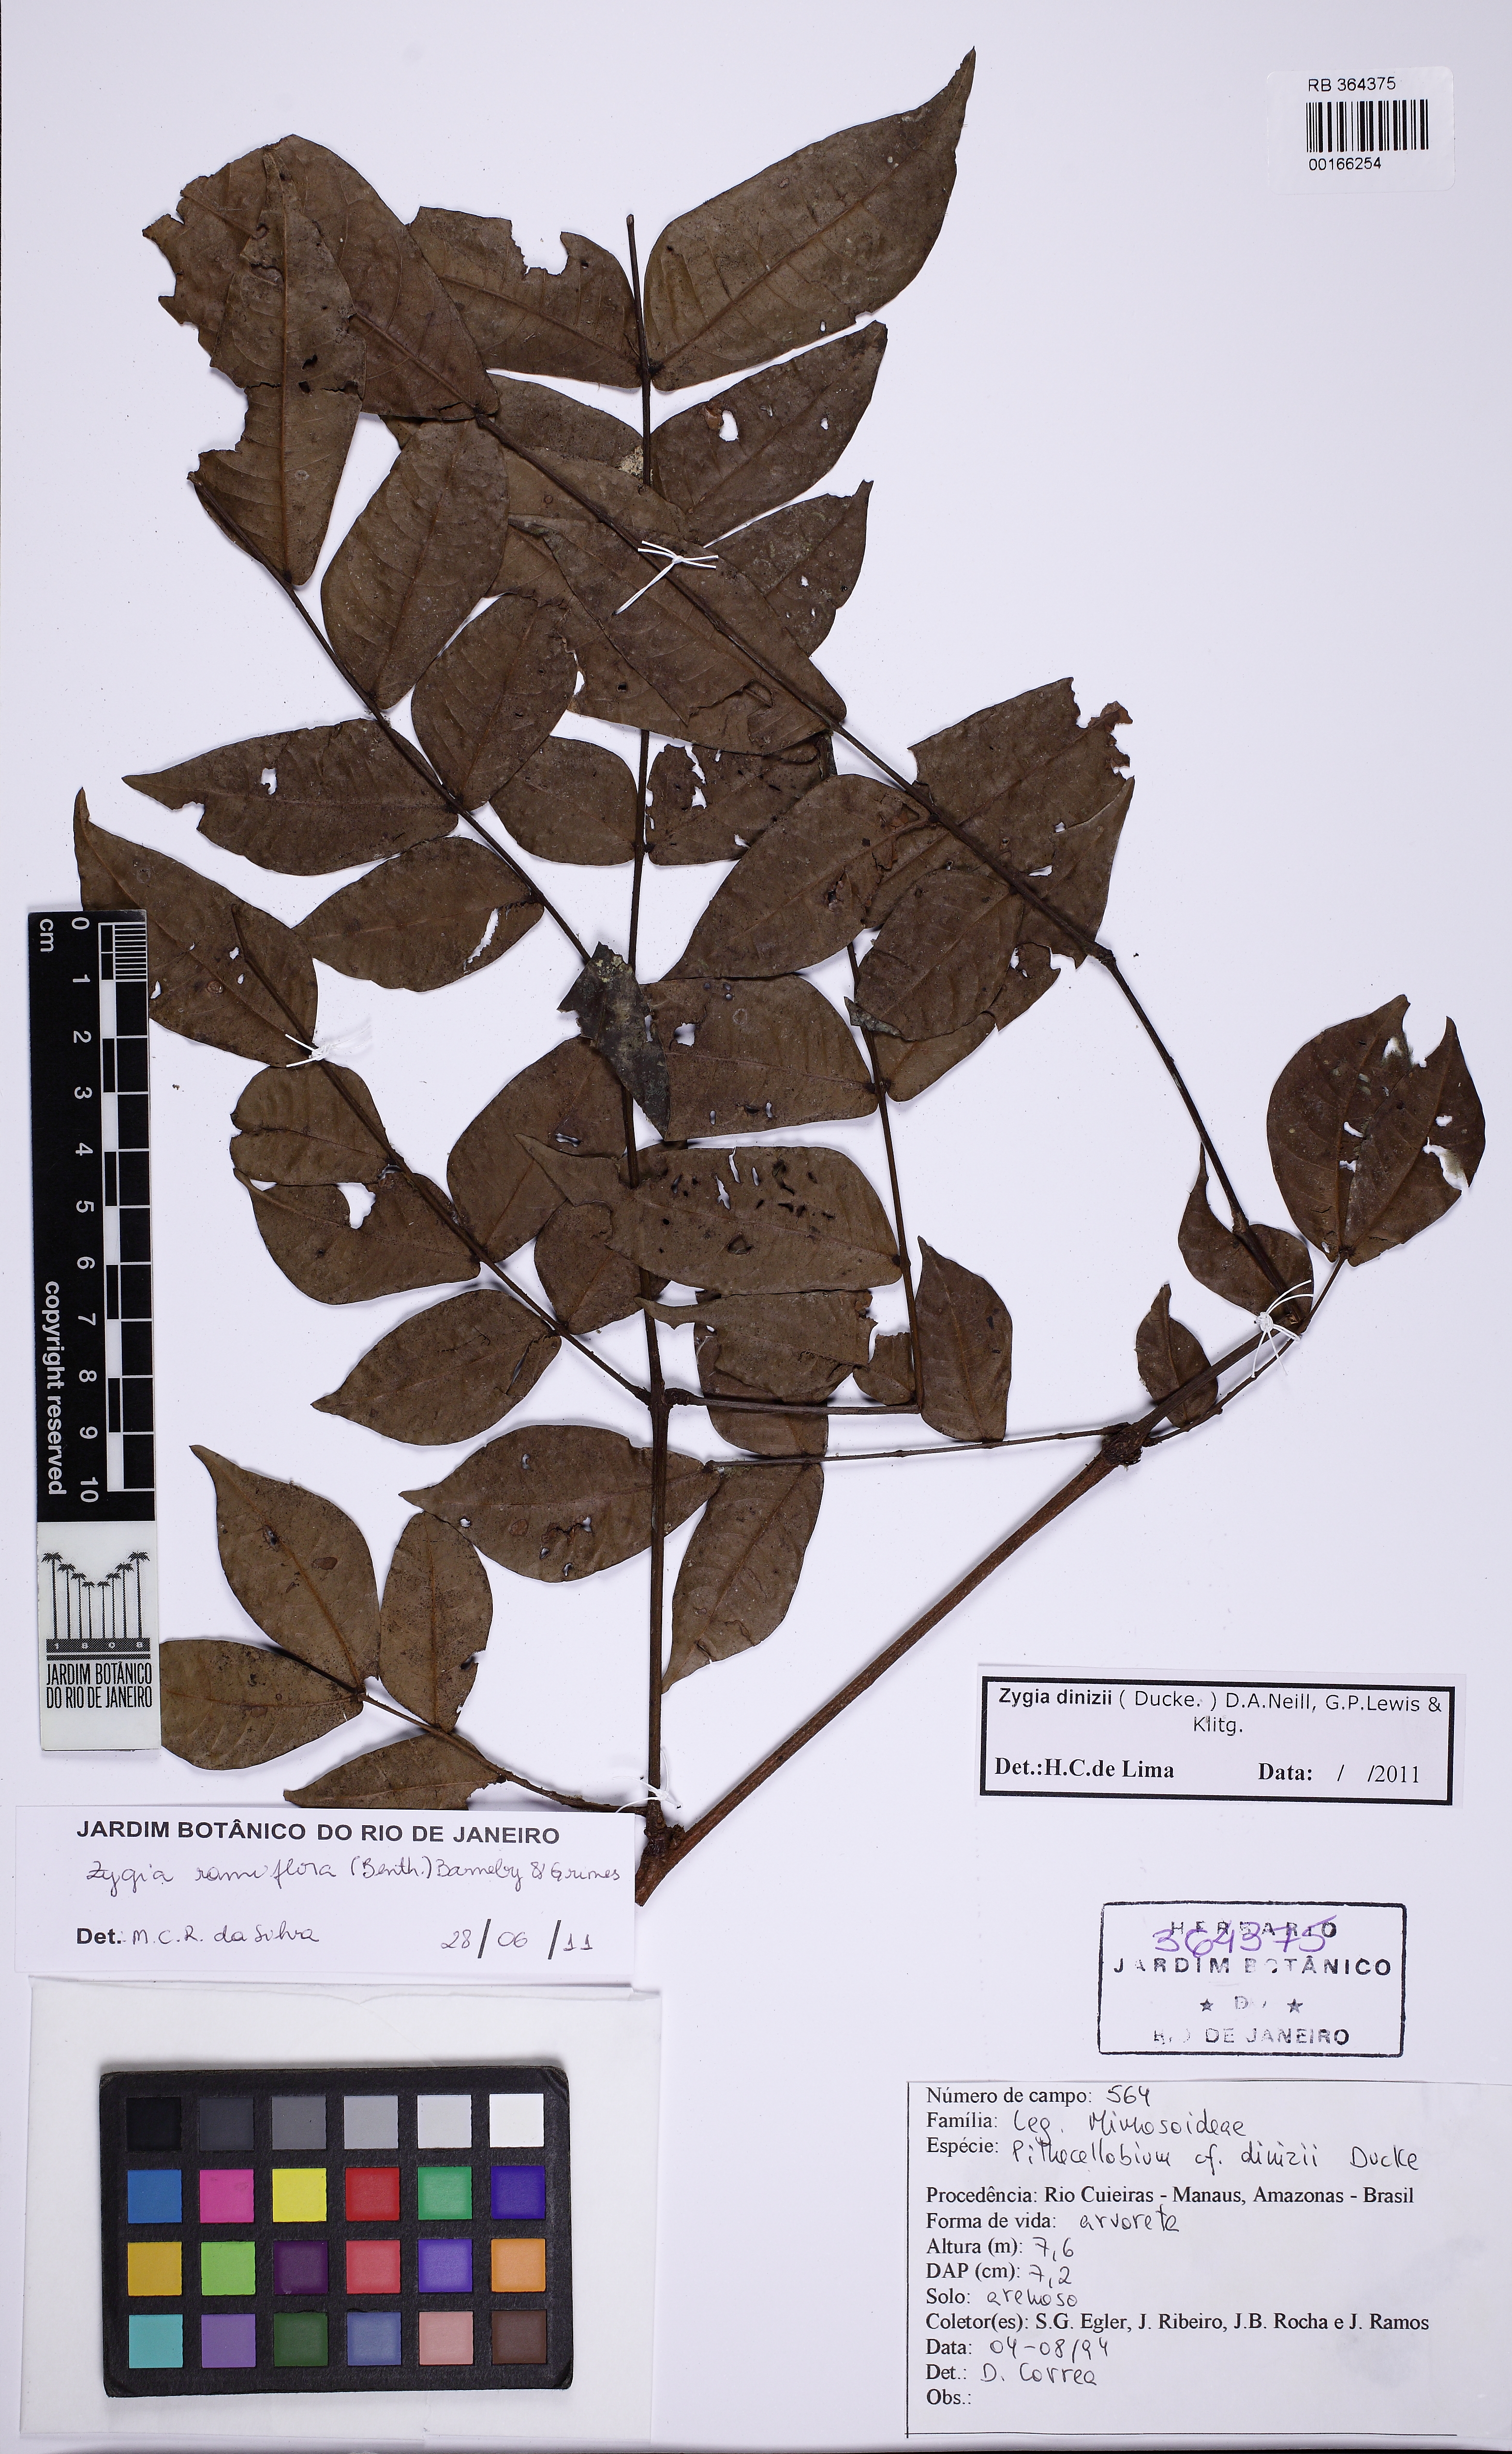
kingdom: Plantae
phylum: Tracheophyta
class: Magnoliopsida
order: Fabales
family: Fabaceae
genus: Zygia
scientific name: Zygia dinizii
